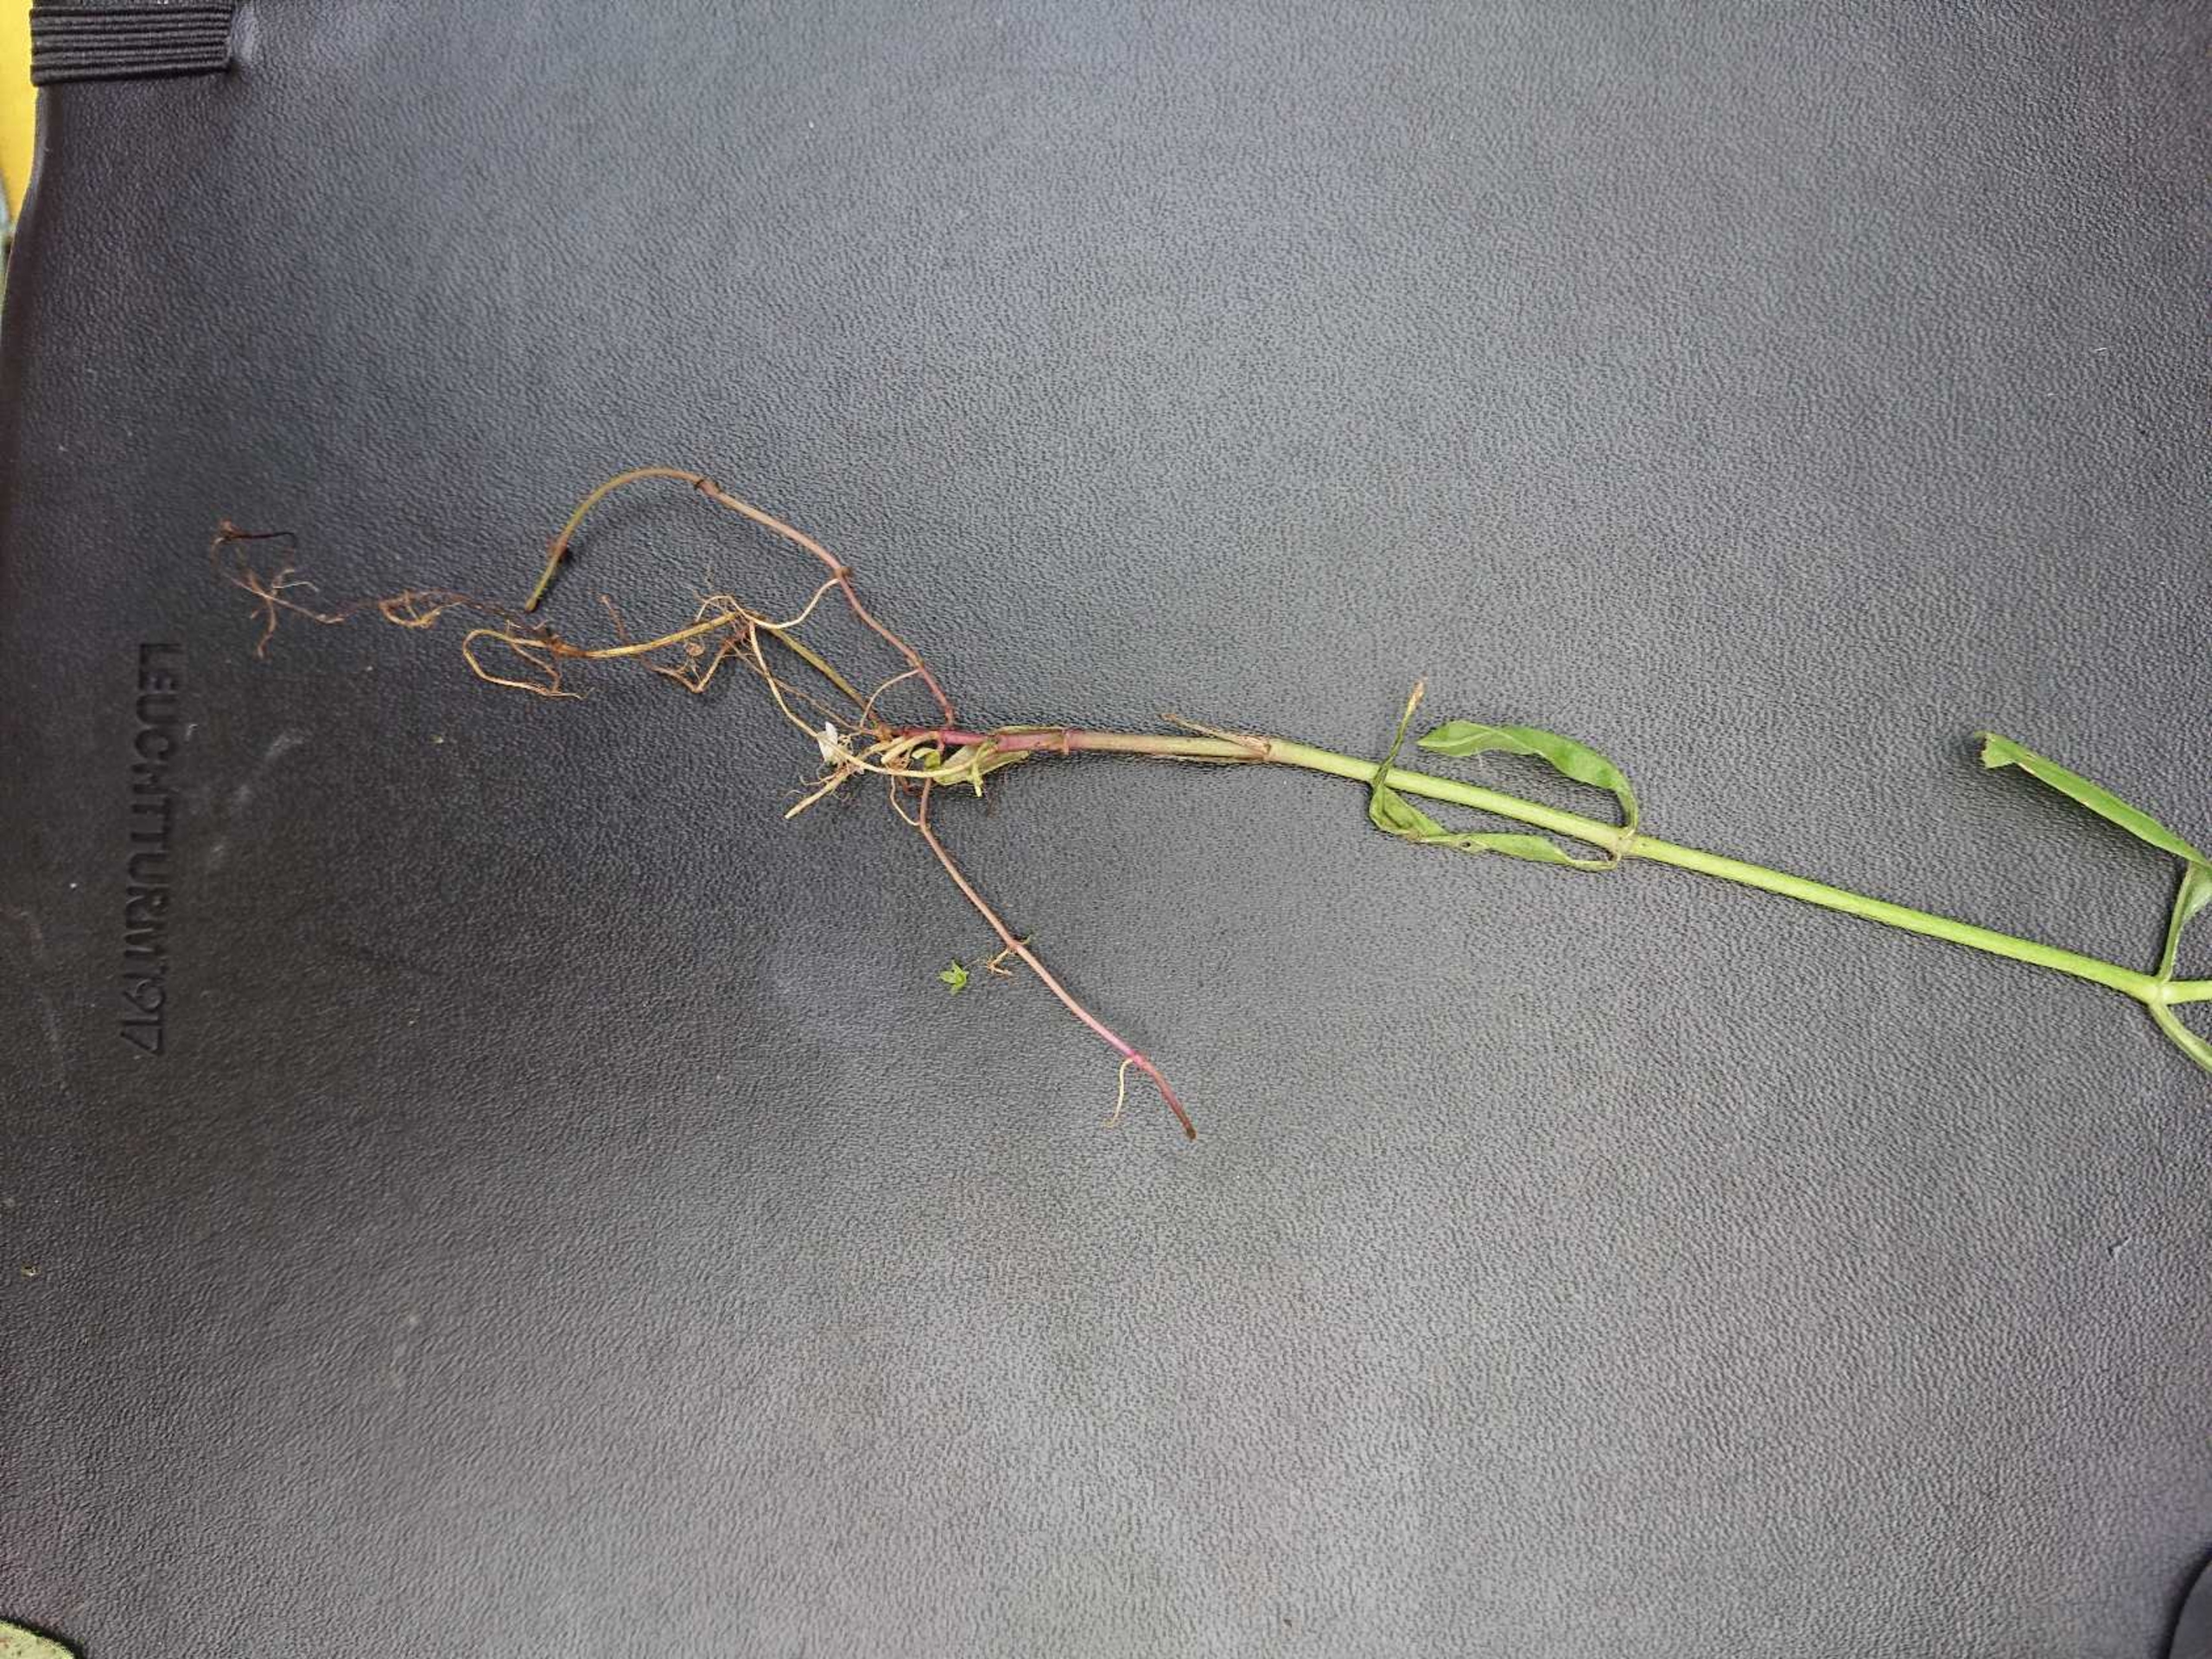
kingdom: Plantae
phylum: Tracheophyta
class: Magnoliopsida
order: Lamiales
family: Plantaginaceae
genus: Veronica
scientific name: Veronica scutellata
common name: Smalbladet ærenpris
